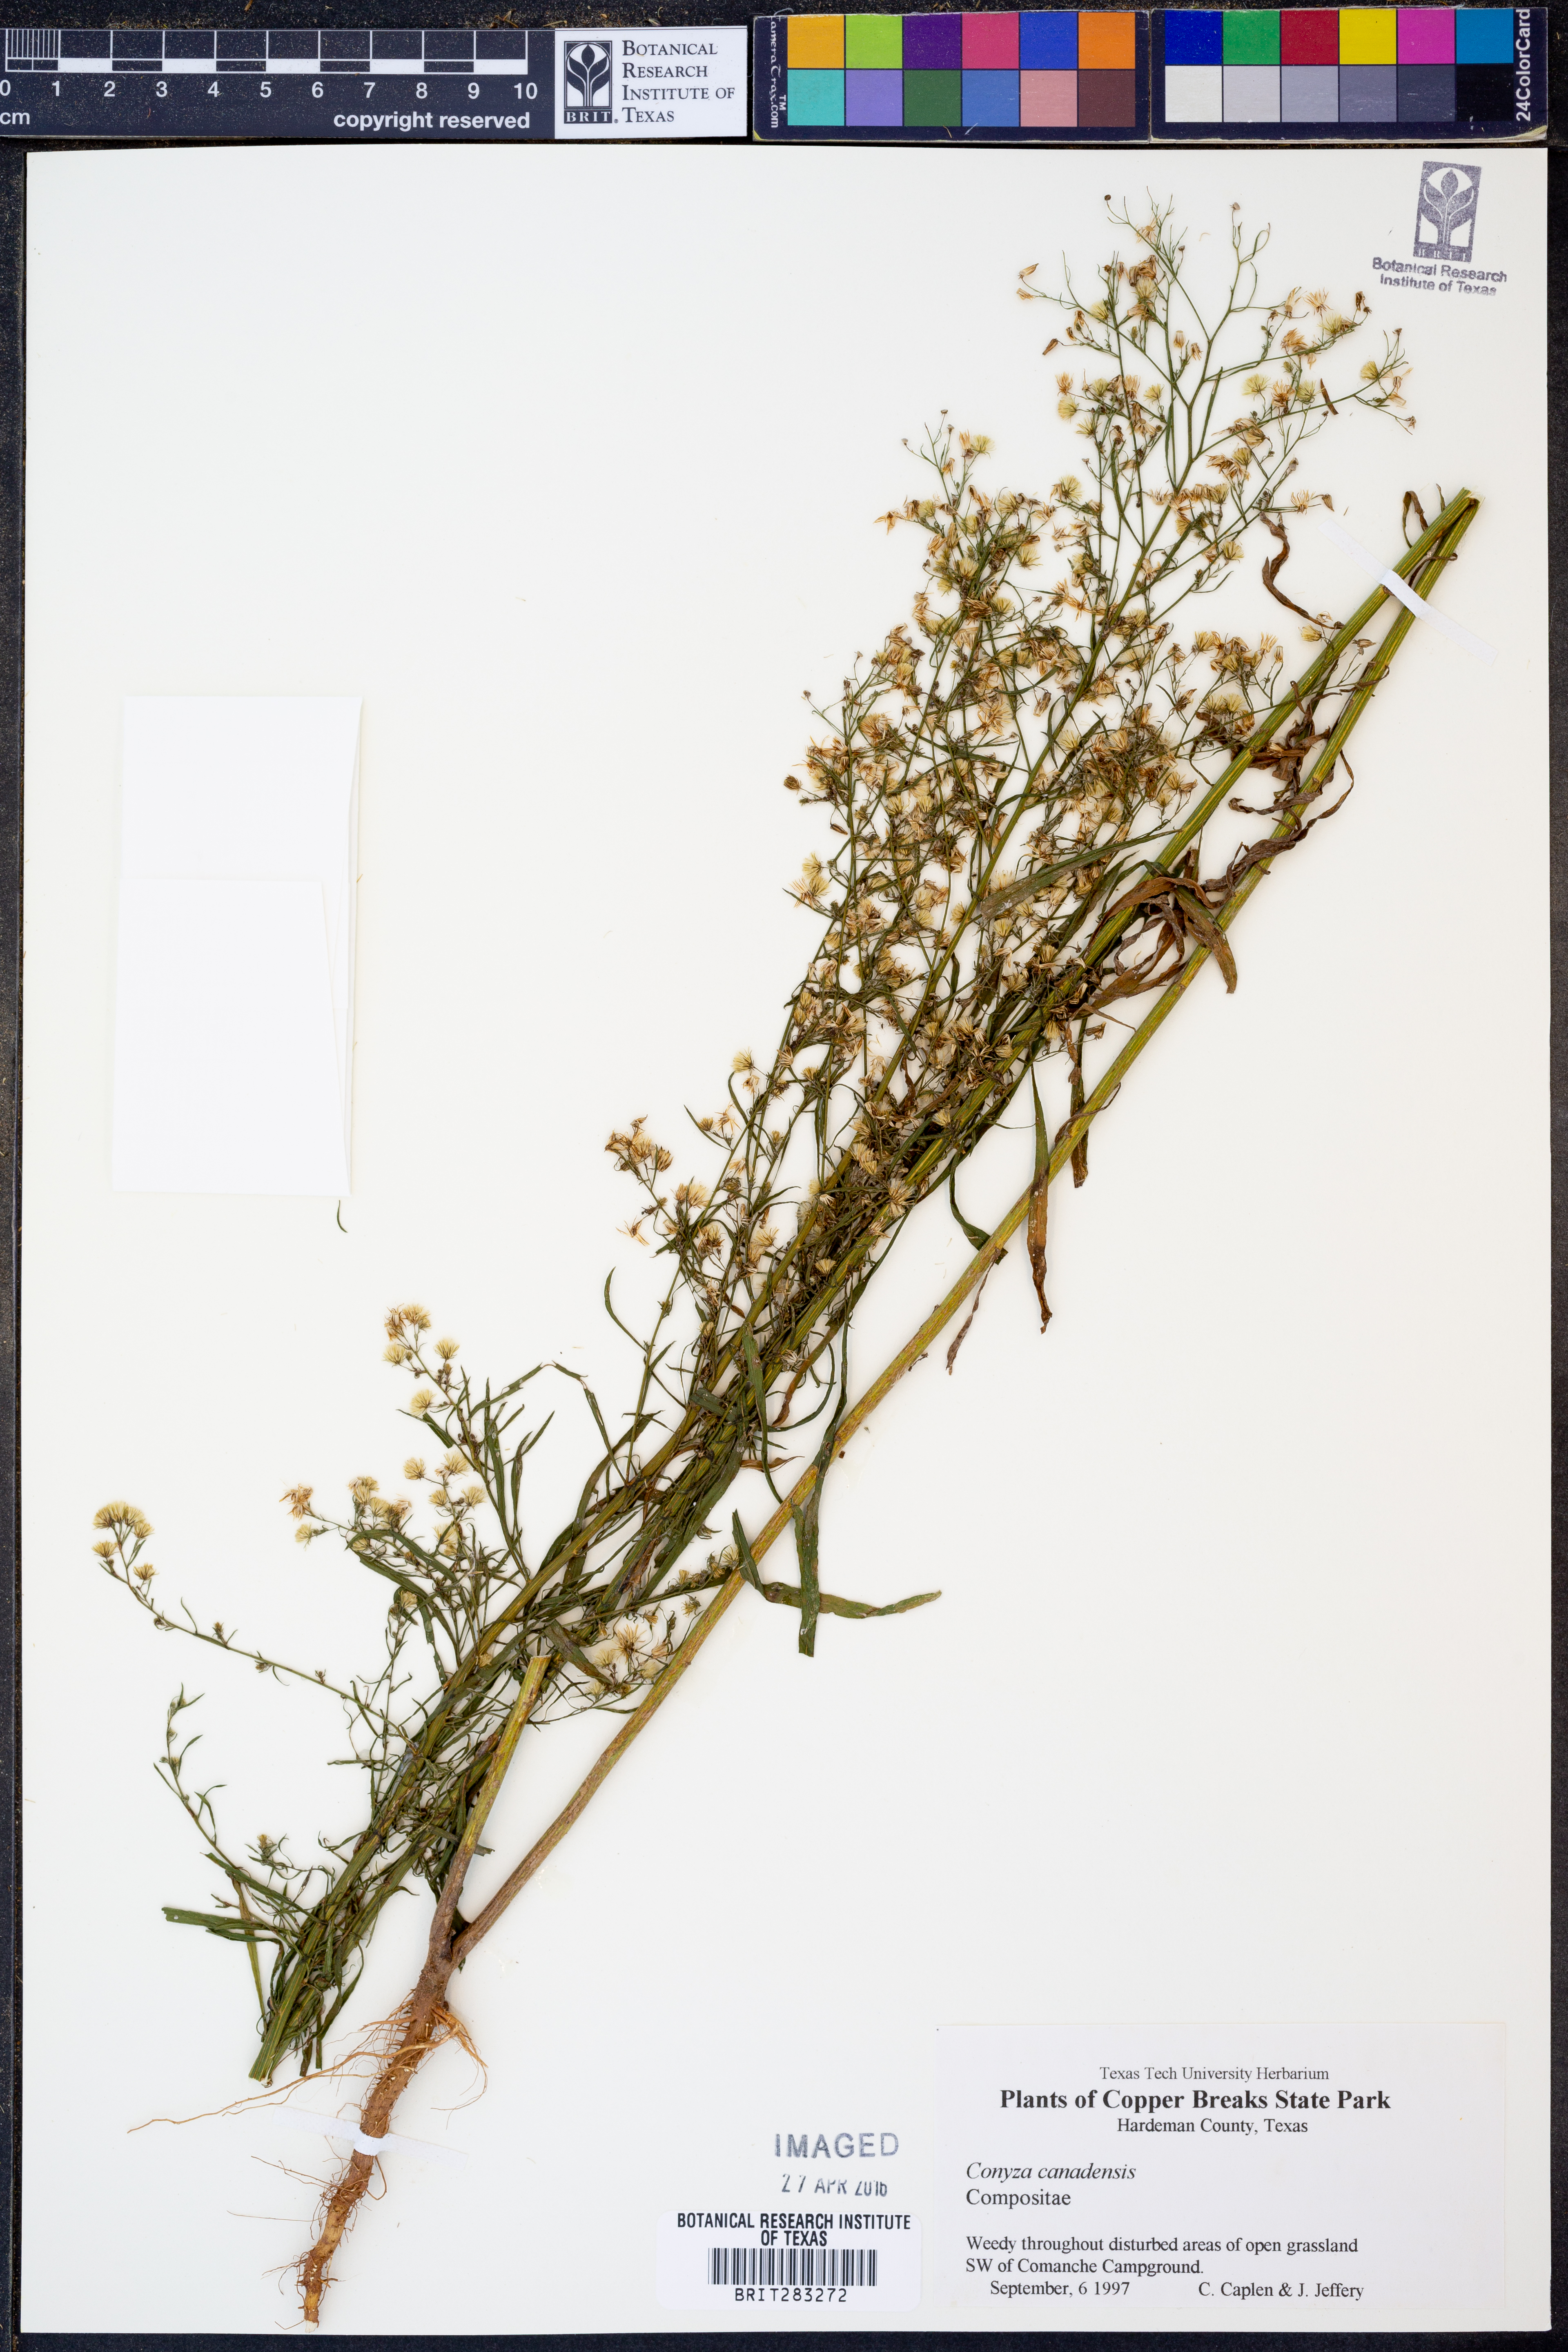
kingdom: Plantae
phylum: Tracheophyta
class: Magnoliopsida
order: Asterales
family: Asteraceae
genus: Erigeron
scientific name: Erigeron canadensis
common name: Canadian fleabane
